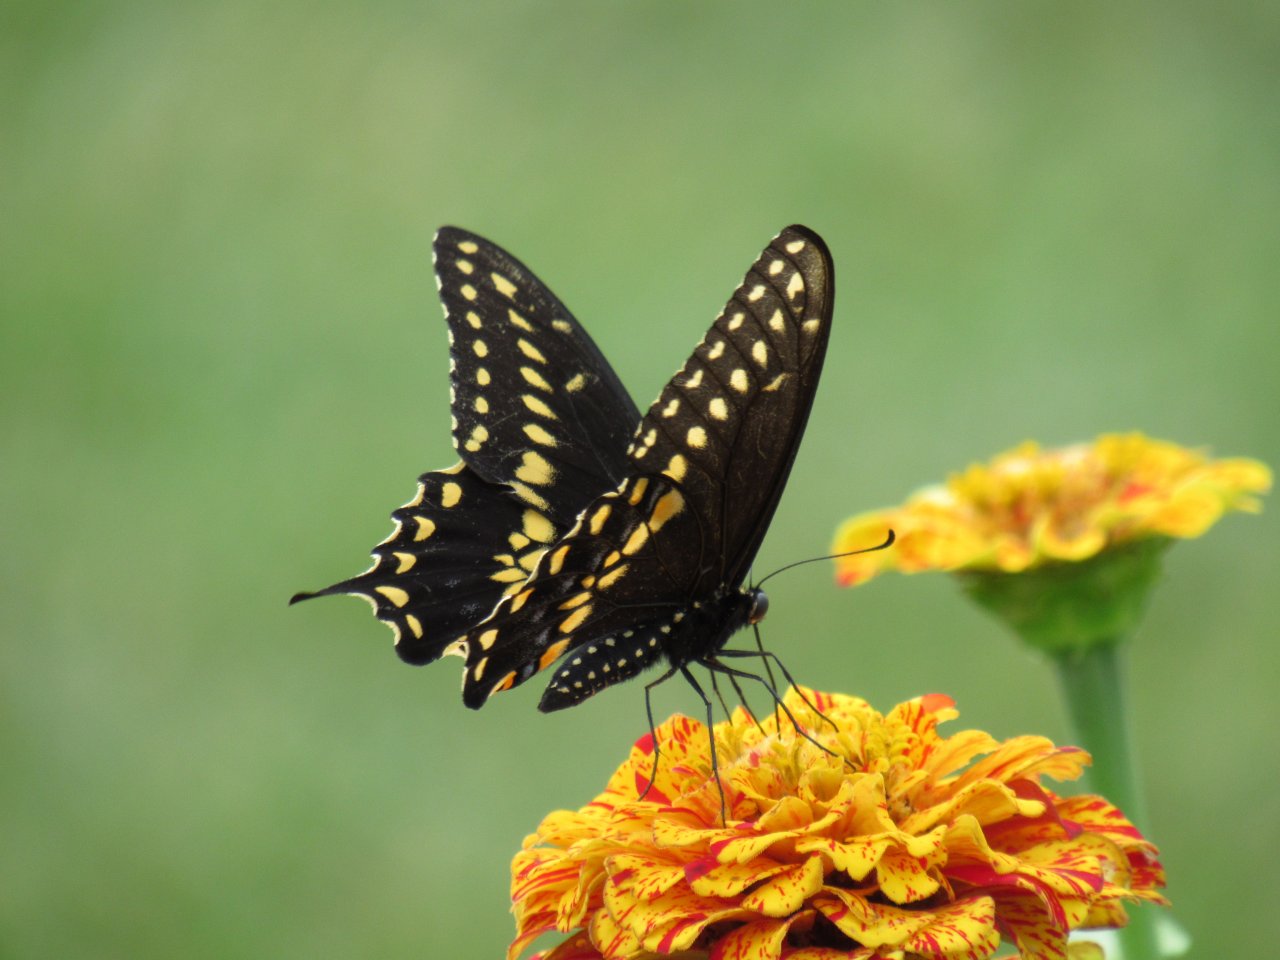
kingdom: Animalia
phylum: Arthropoda
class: Insecta
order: Lepidoptera
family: Papilionidae
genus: Papilio
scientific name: Papilio polyxenes
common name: Black Swallowtail
